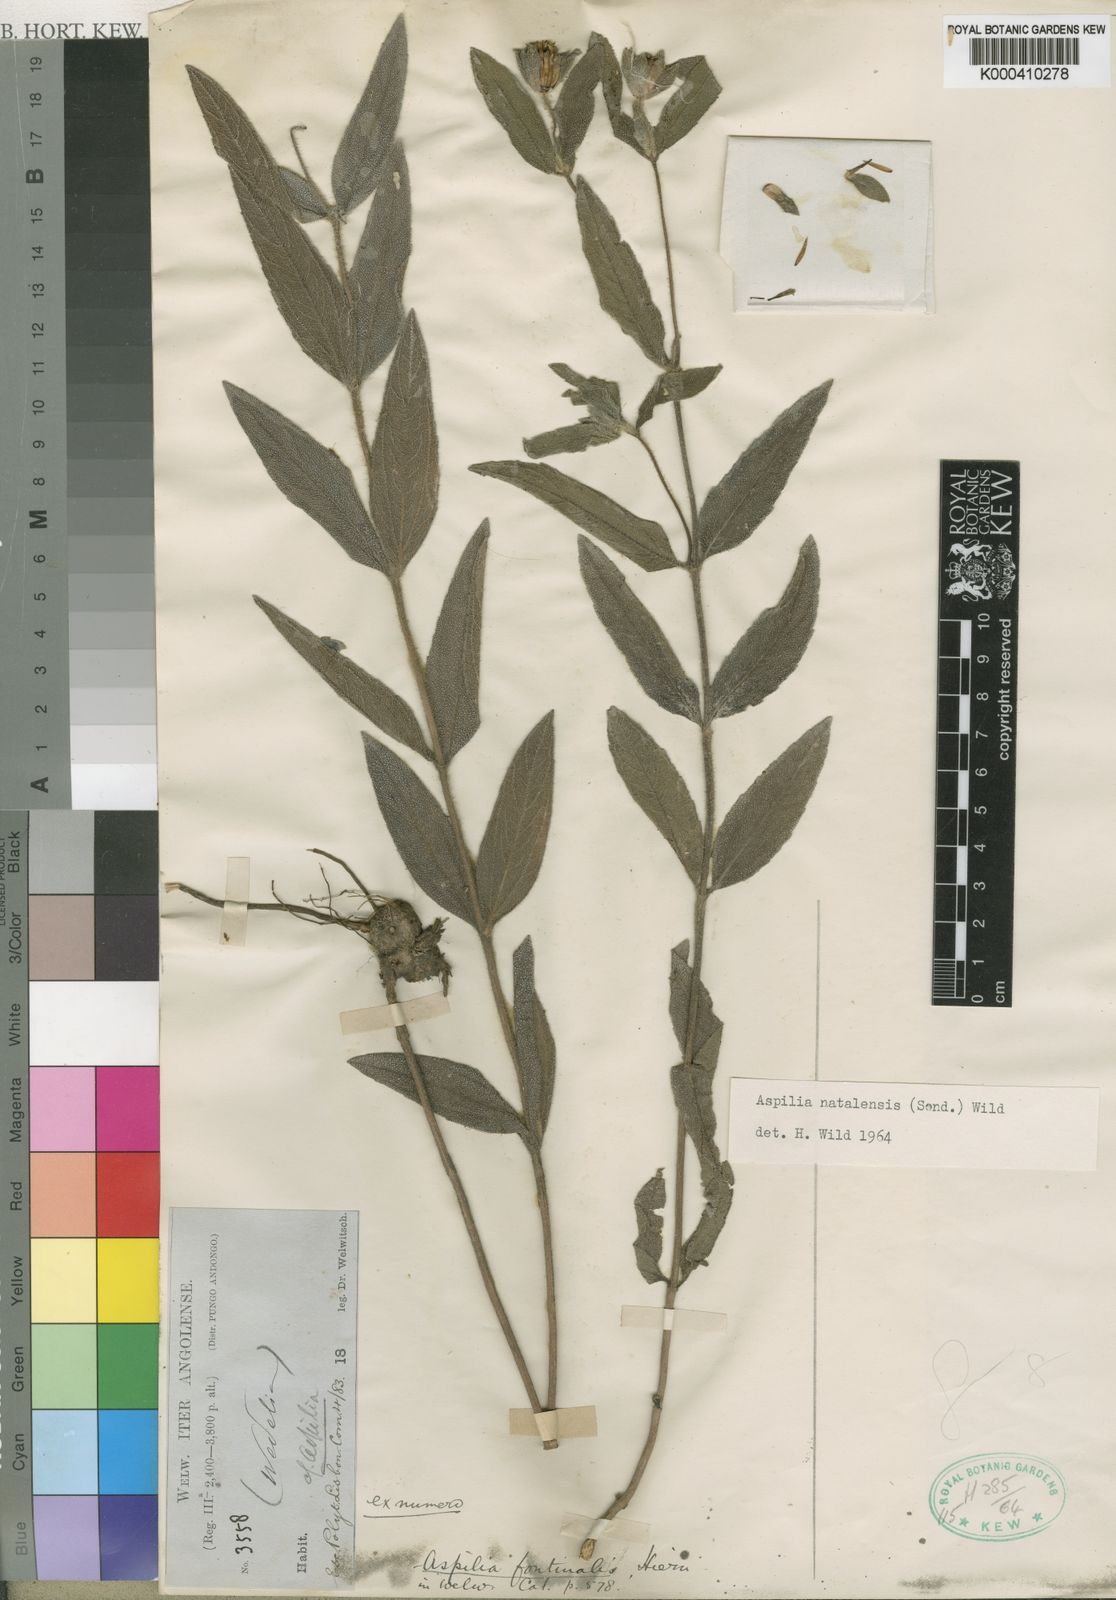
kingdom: Plantae
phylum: Tracheophyta
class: Magnoliopsida
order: Asterales
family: Asteraceae
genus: Aspilia
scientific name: Aspilia angolensis
